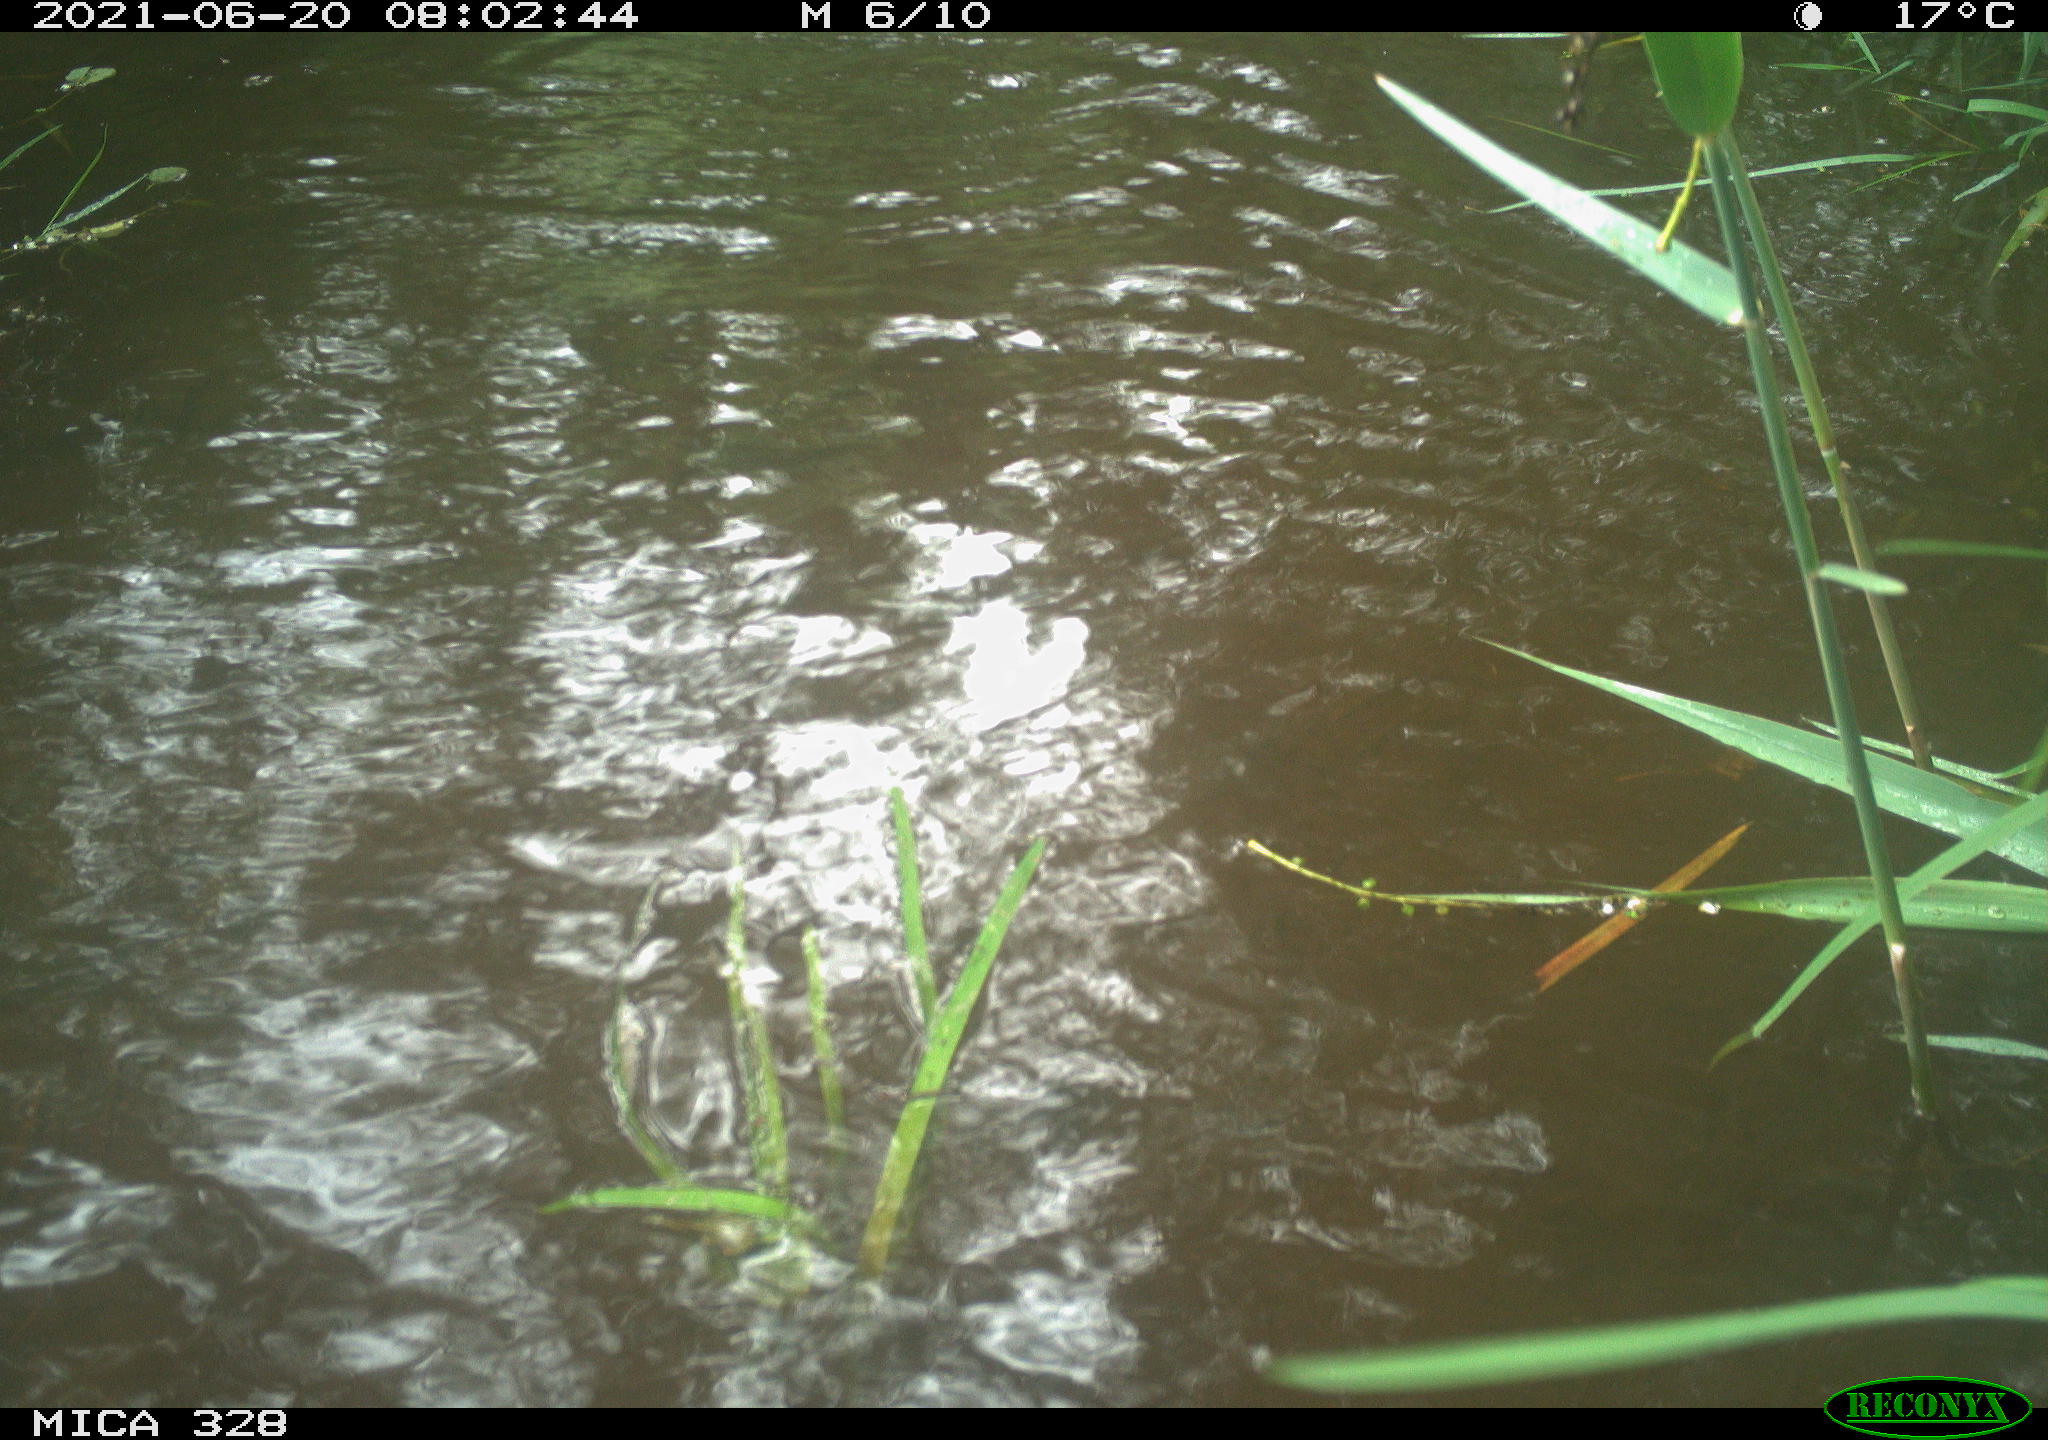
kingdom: Animalia
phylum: Chordata
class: Mammalia
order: Rodentia
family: Cricetidae
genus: Ondatra
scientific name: Ondatra zibethicus
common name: Muskrat
